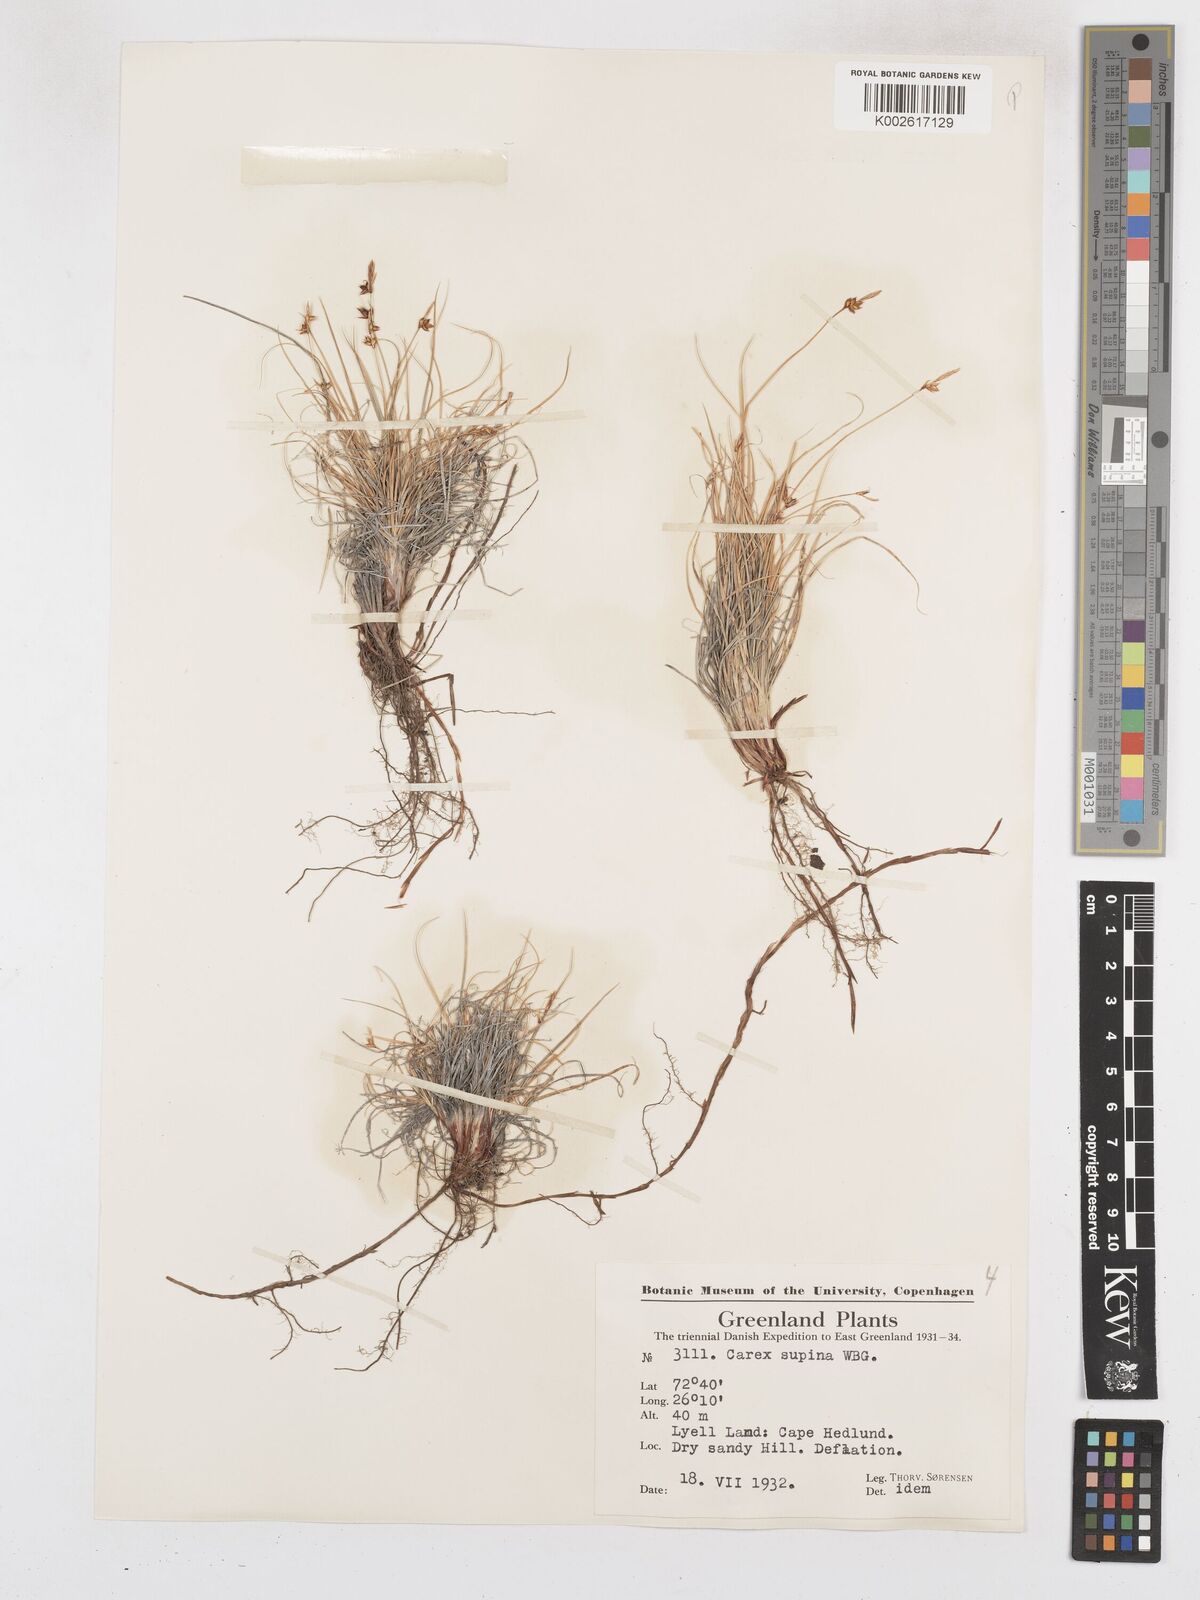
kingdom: Plantae
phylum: Tracheophyta
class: Liliopsida
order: Poales
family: Cyperaceae
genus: Carex
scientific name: Carex supina
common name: Lying-back sedge
